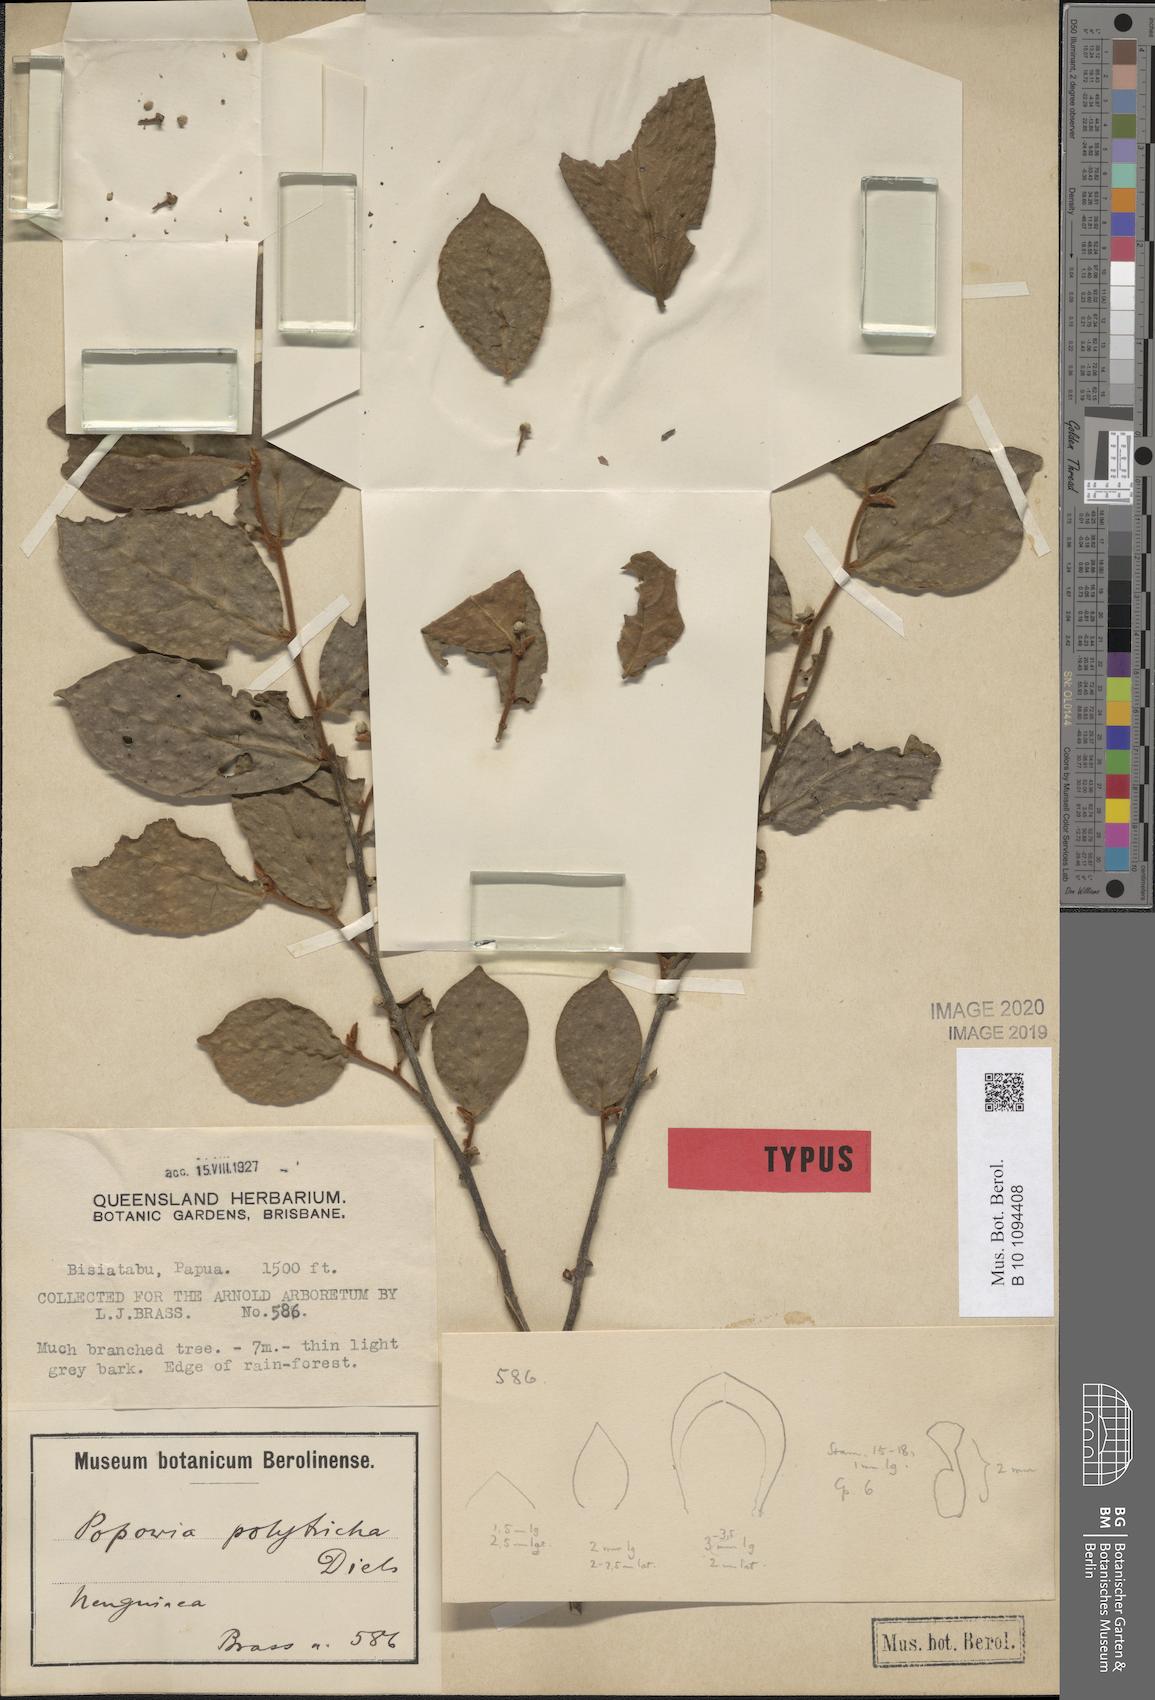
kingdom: Plantae
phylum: Tracheophyta
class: Magnoliopsida
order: Magnoliales
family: Annonaceae
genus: Popowia
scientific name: Popowia polytricha
